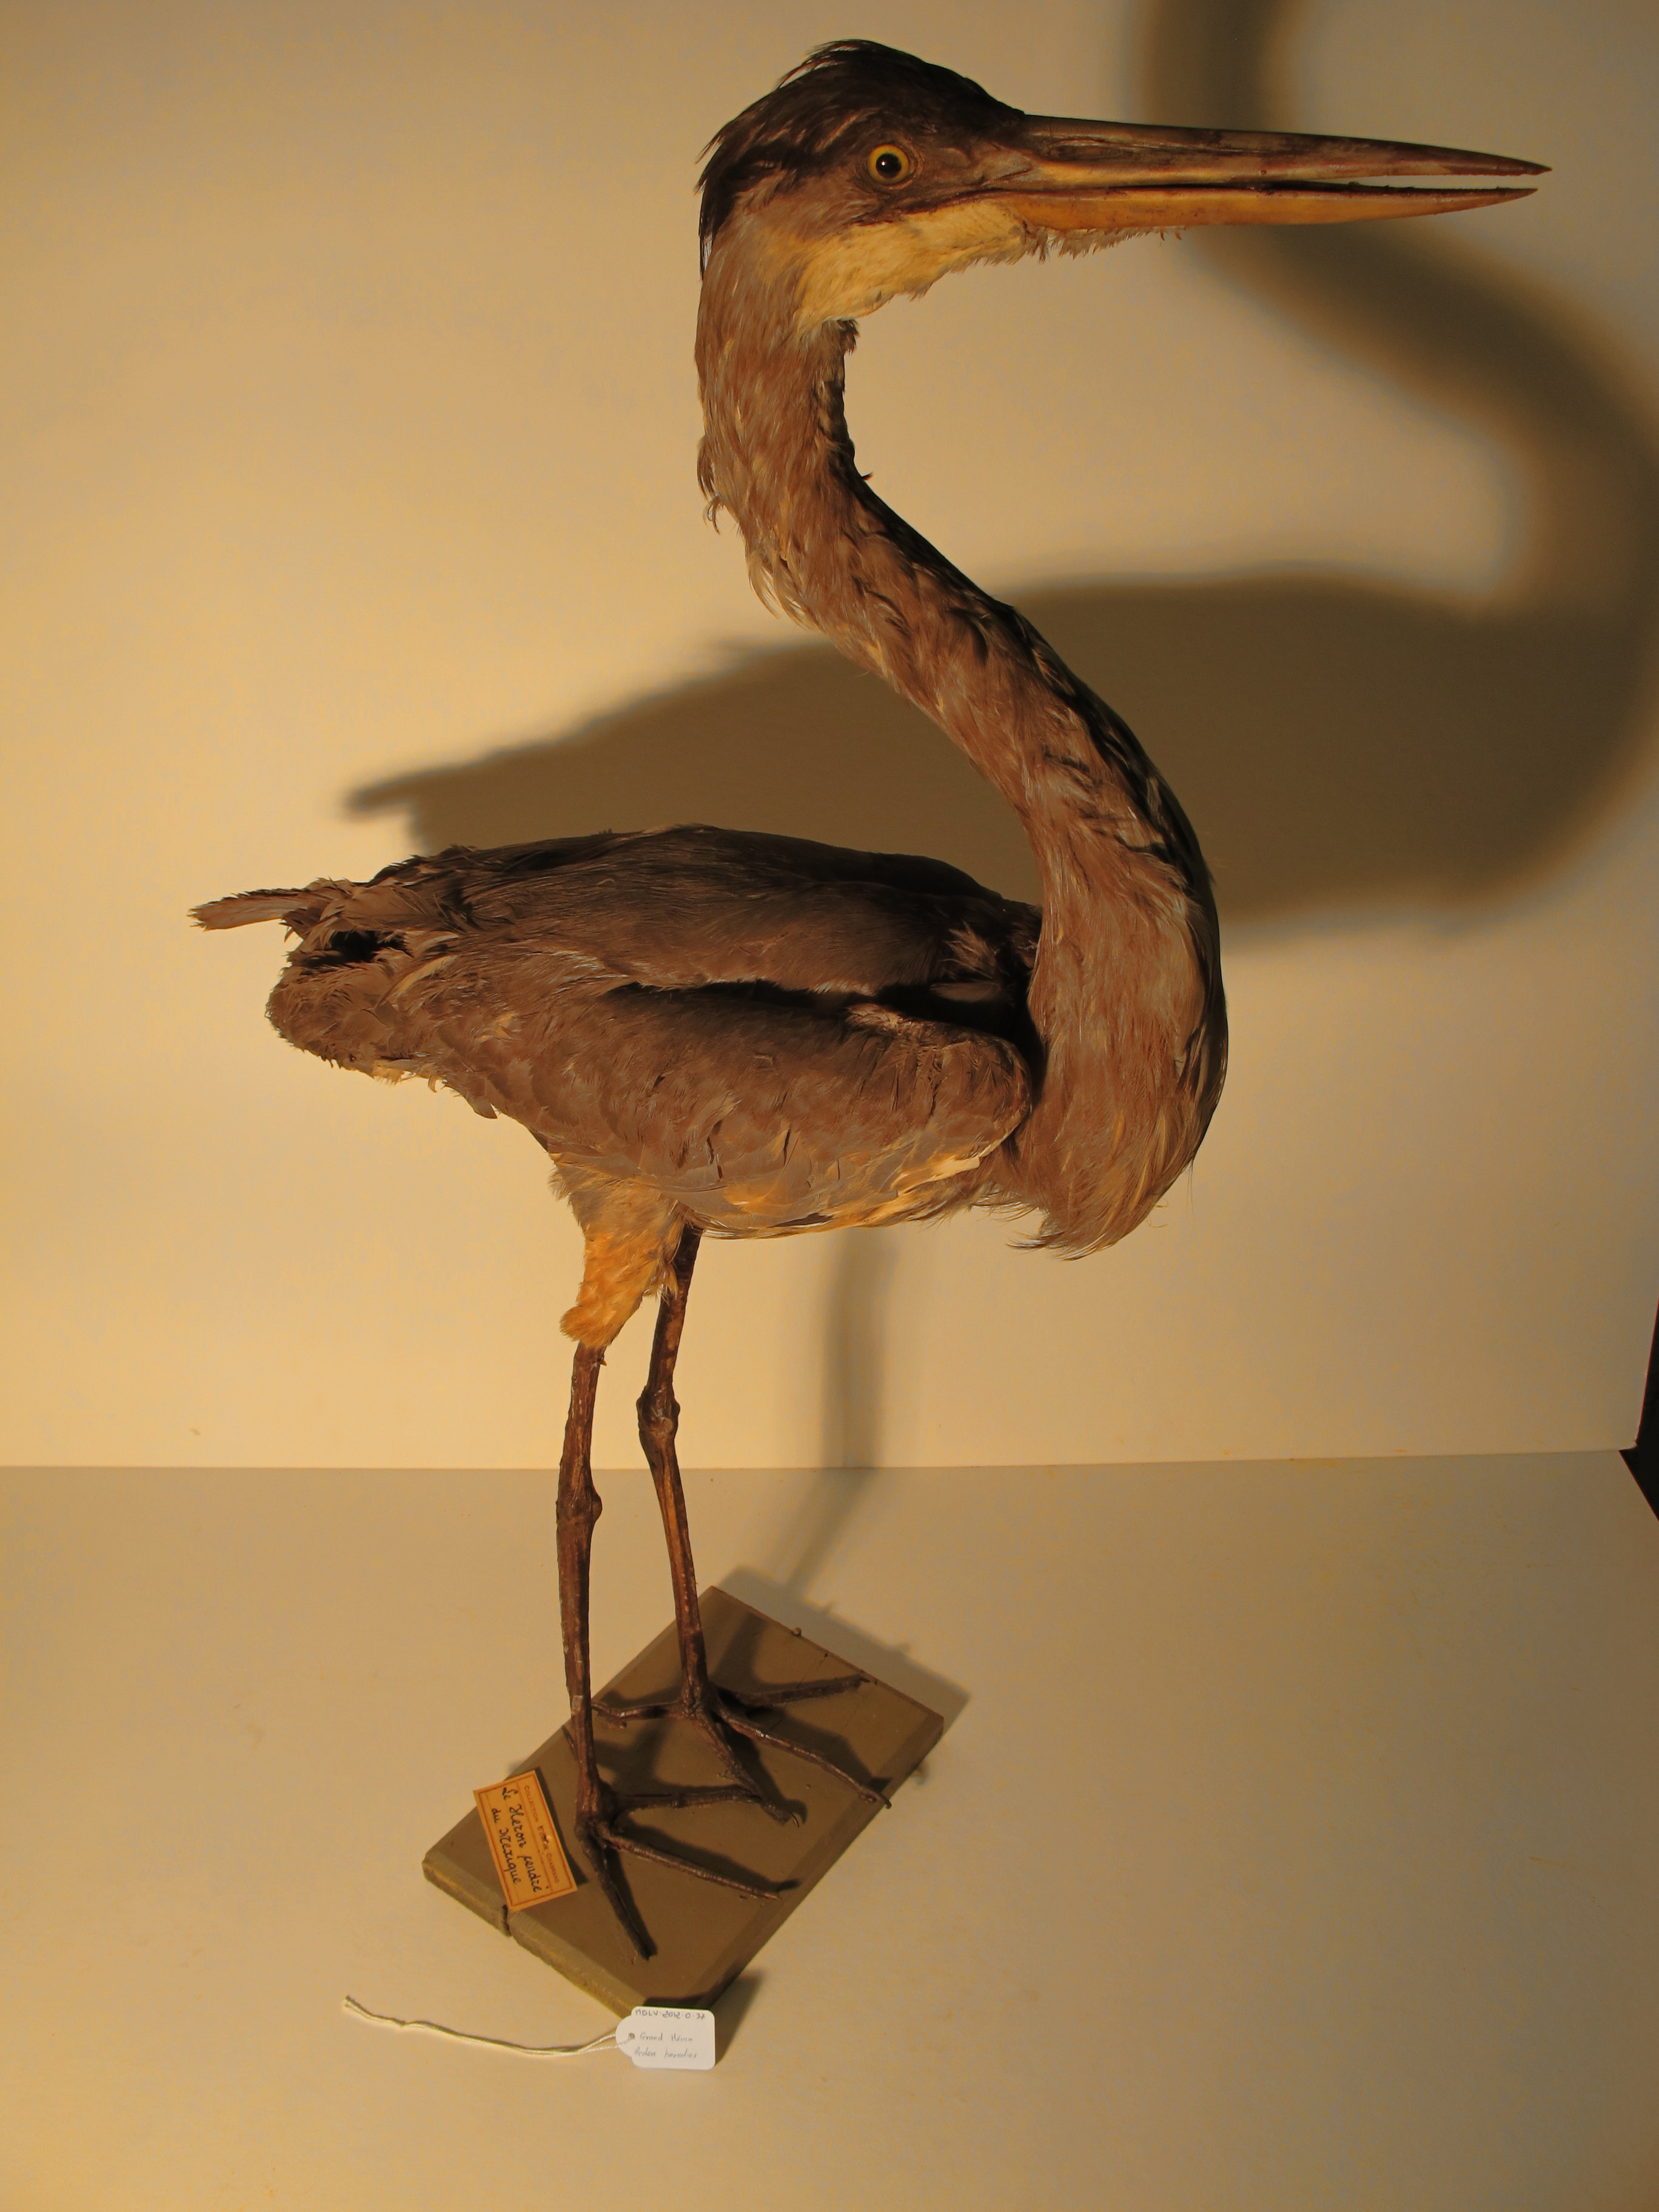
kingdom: Animalia
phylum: Chordata
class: Aves
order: Pelecaniformes
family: Ardeidae
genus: Ardea
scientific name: Ardea herodias
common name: Great Blue Heron
